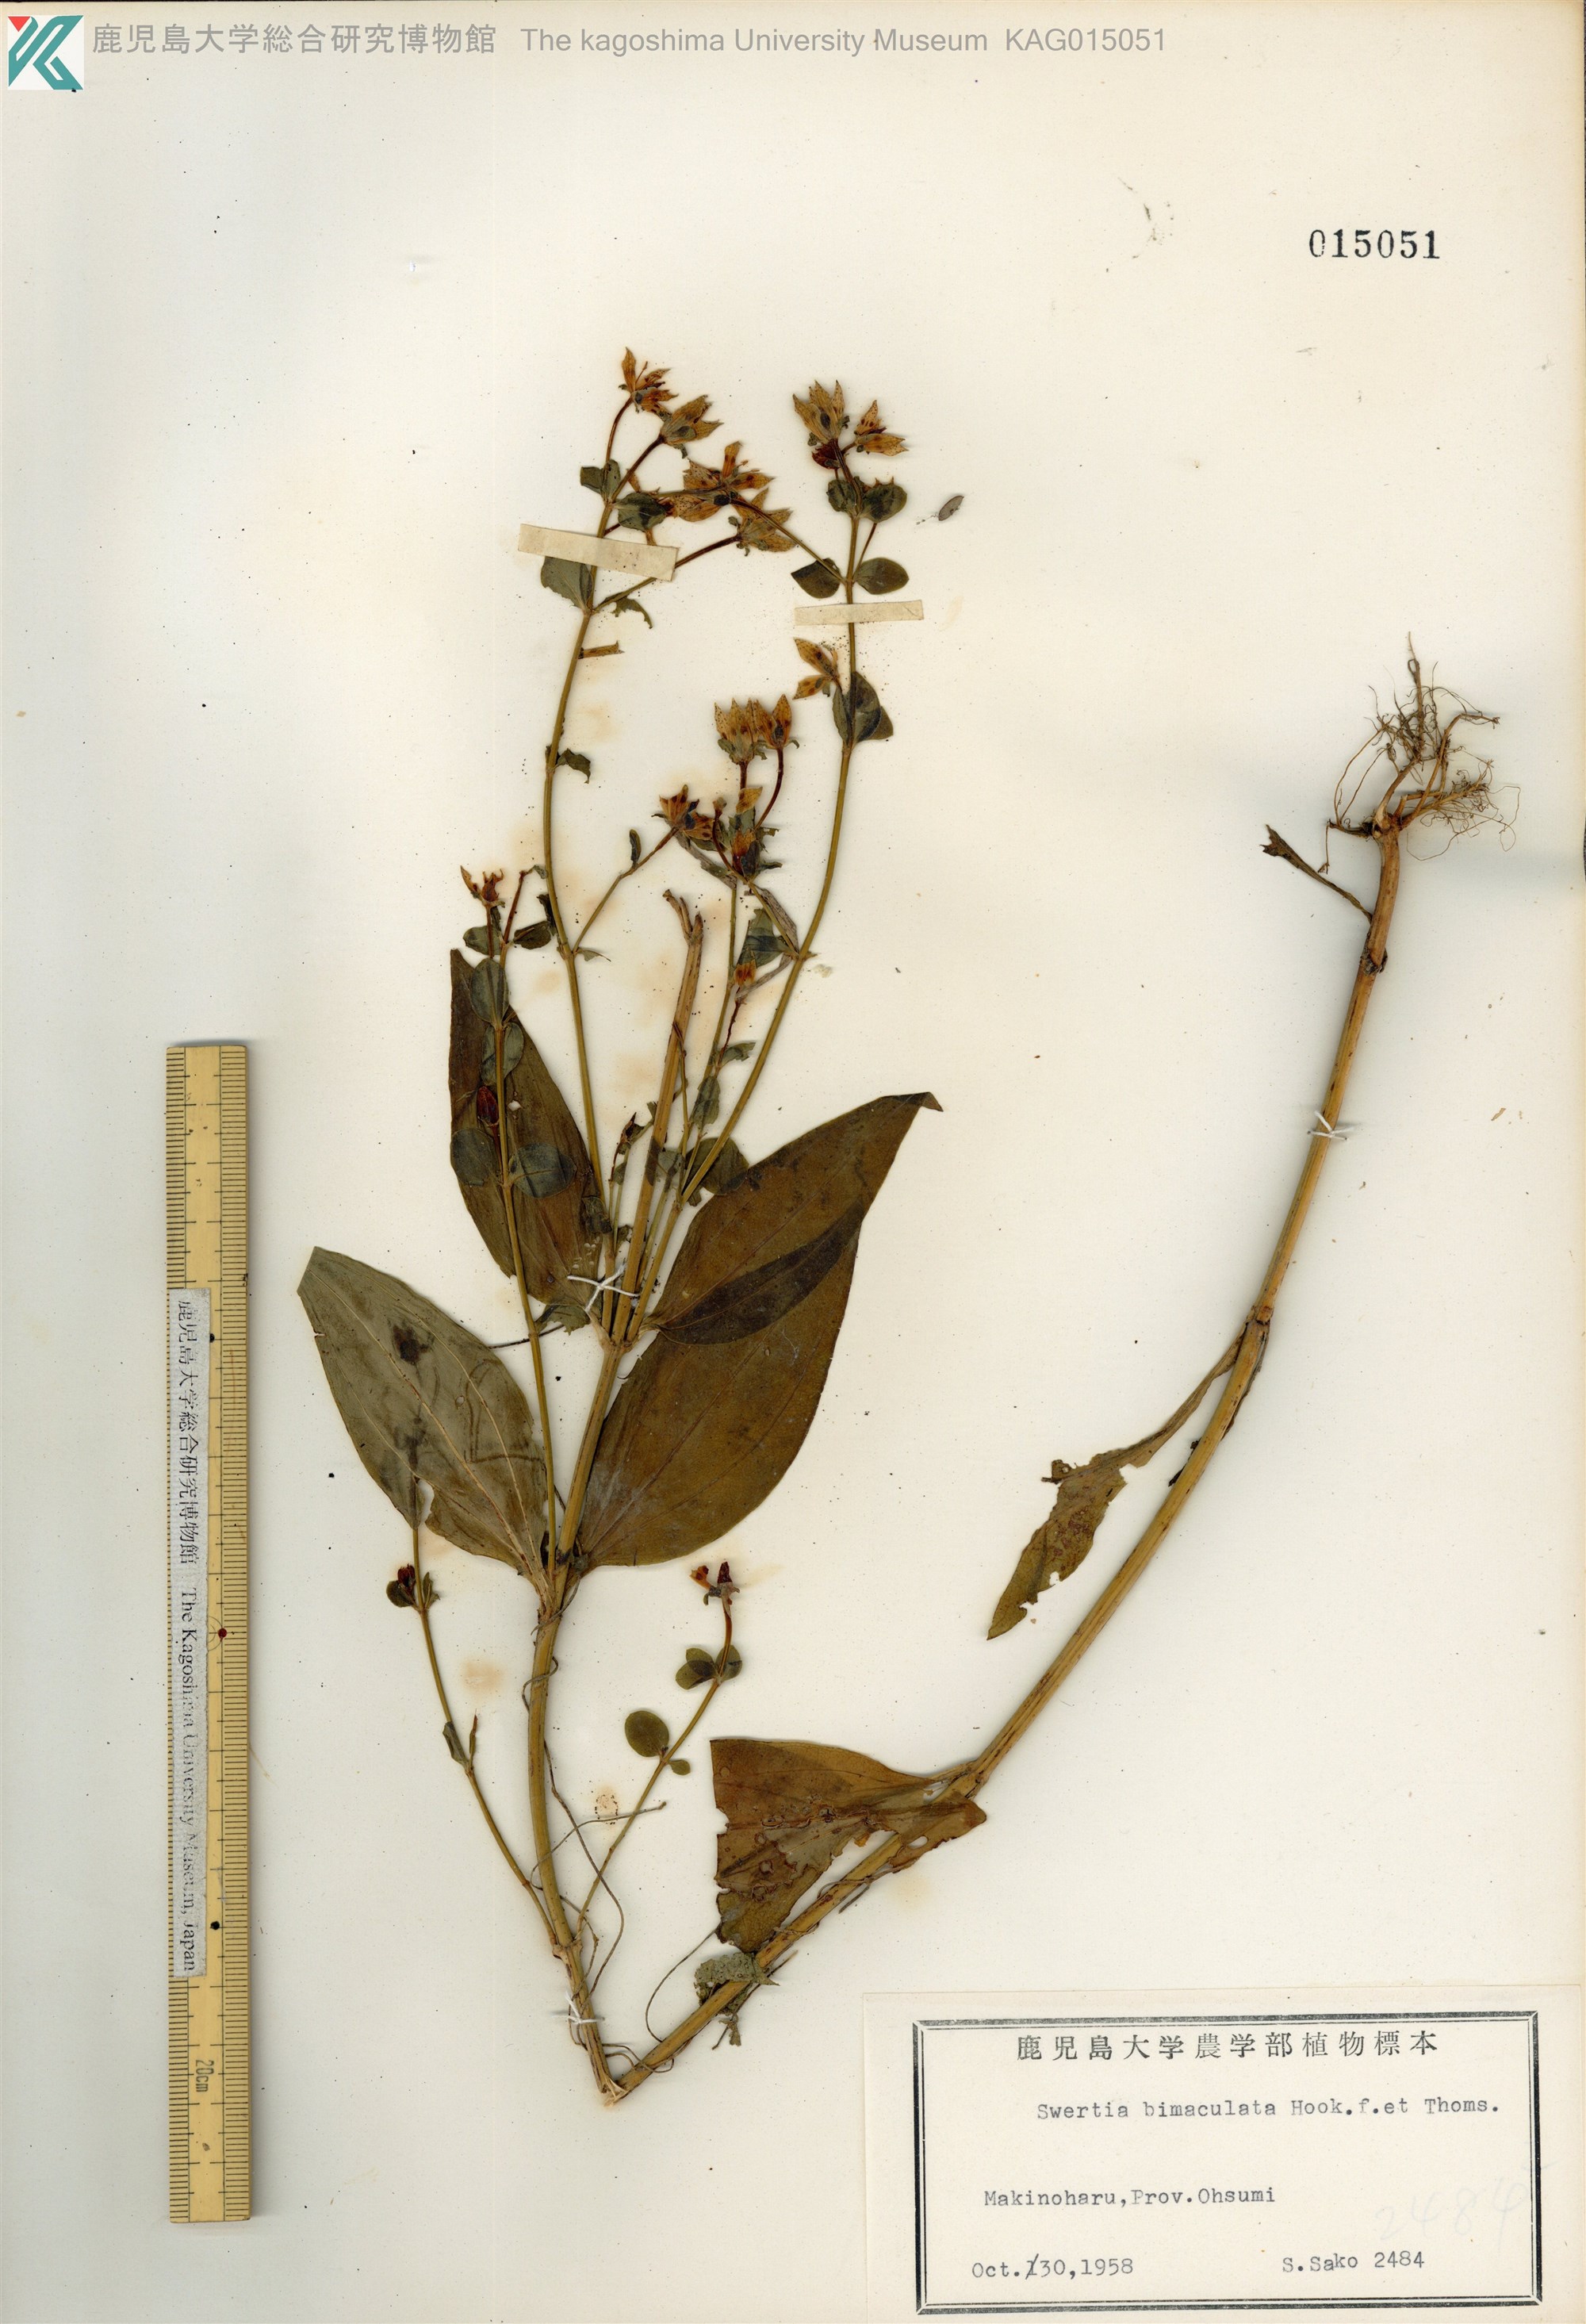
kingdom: Plantae
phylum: Tracheophyta
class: Magnoliopsida
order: Gentianales
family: Gentianaceae
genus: Swertia
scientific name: Swertia bimaculata
